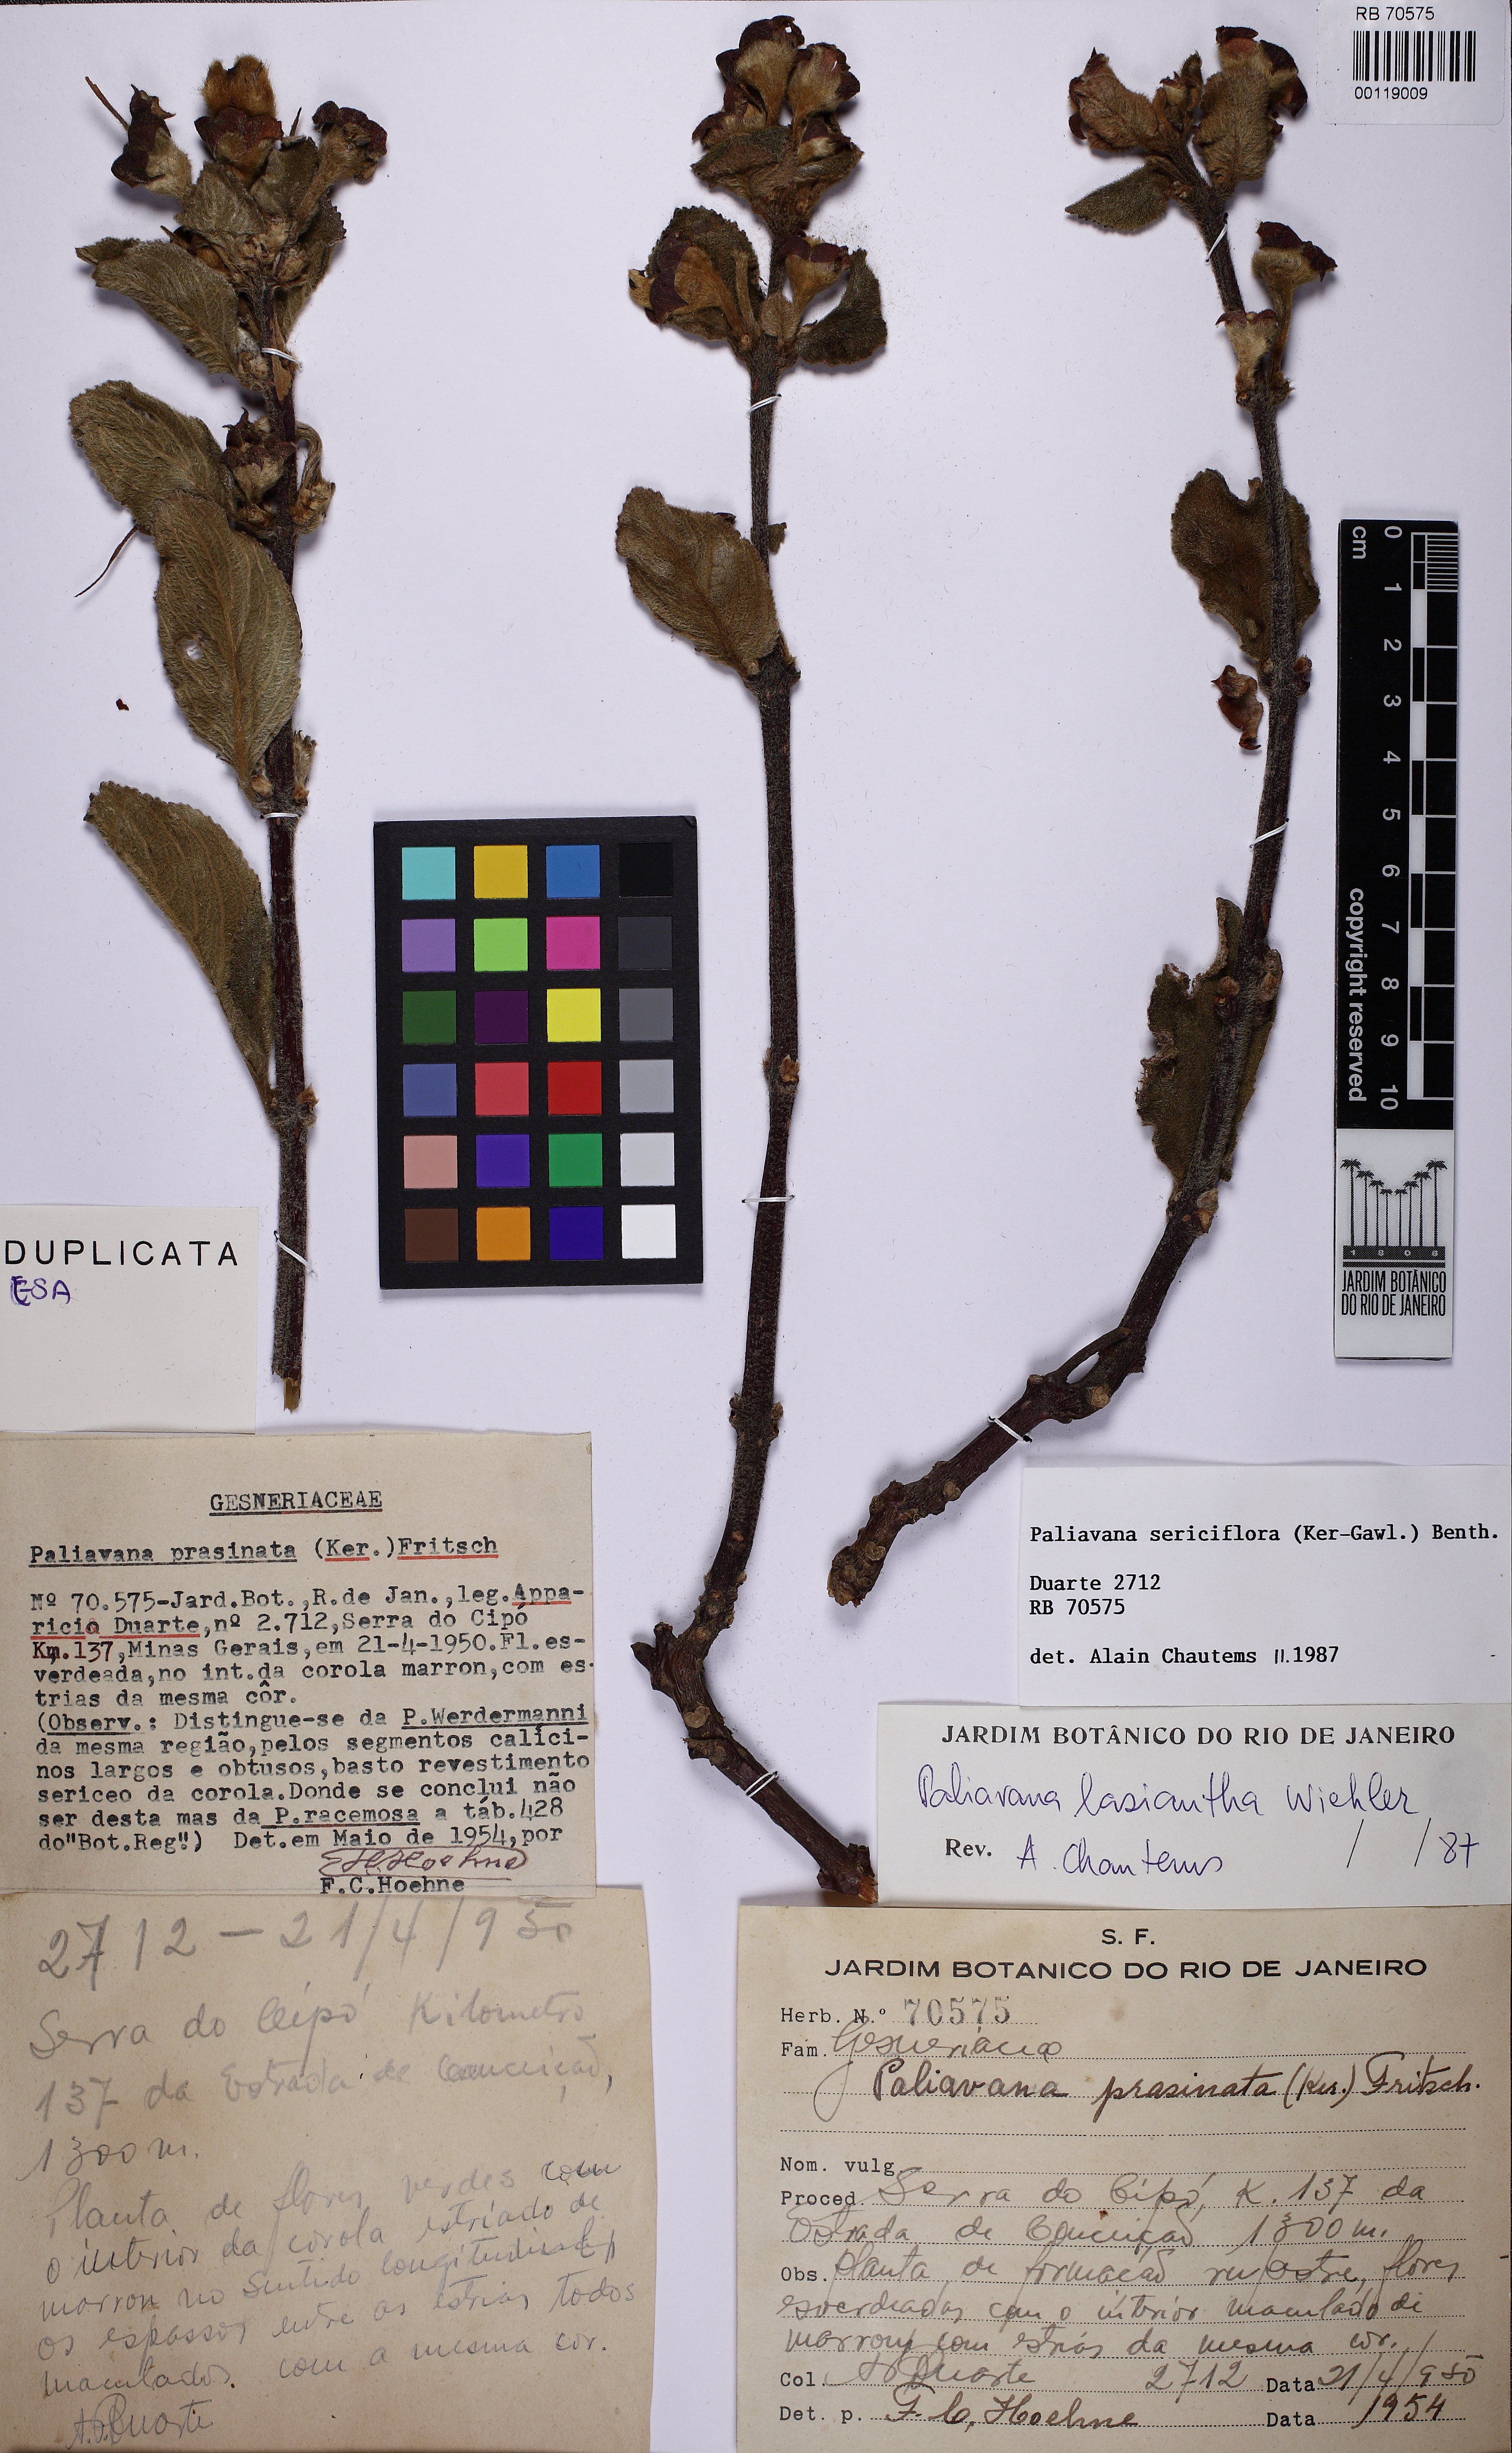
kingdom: Plantae
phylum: Tracheophyta
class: Magnoliopsida
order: Lamiales
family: Gesneriaceae
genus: Paliavana
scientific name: Paliavana prasinata
